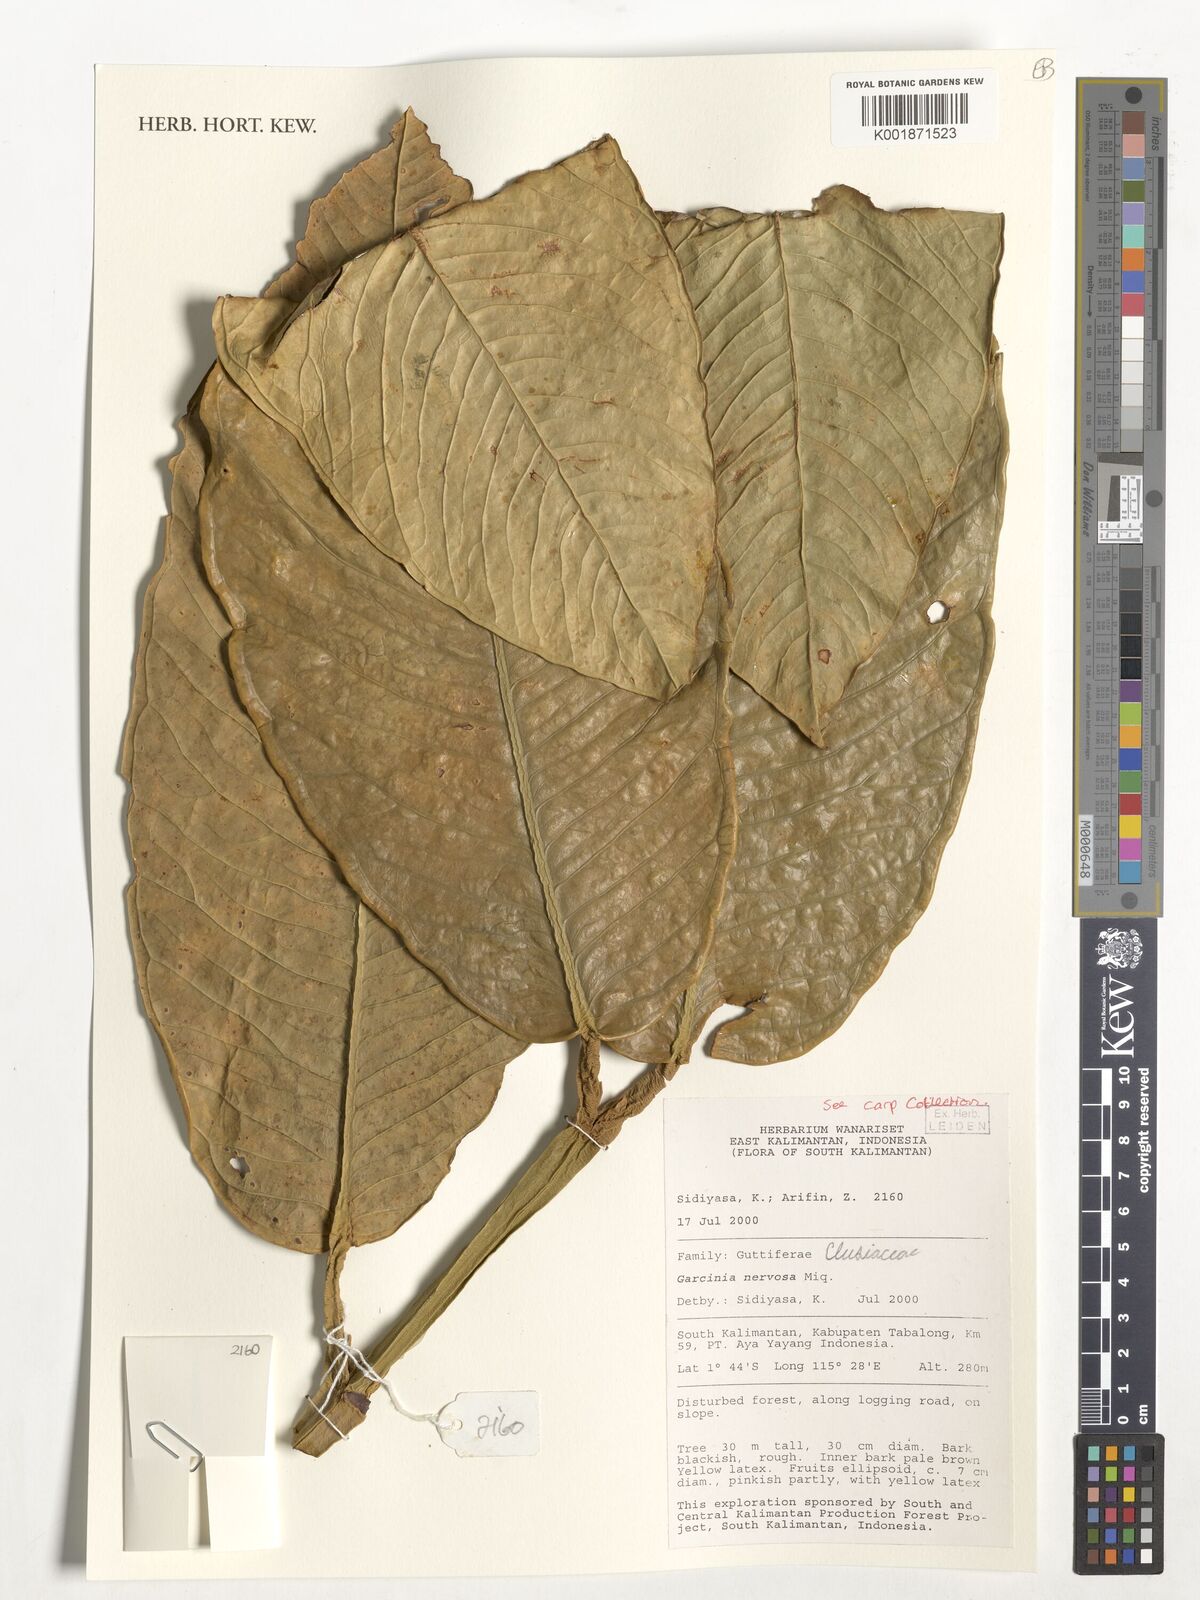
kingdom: Plantae
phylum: Tracheophyta
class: Magnoliopsida
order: Malpighiales
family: Clusiaceae
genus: Garcinia
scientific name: Garcinia nervosa
